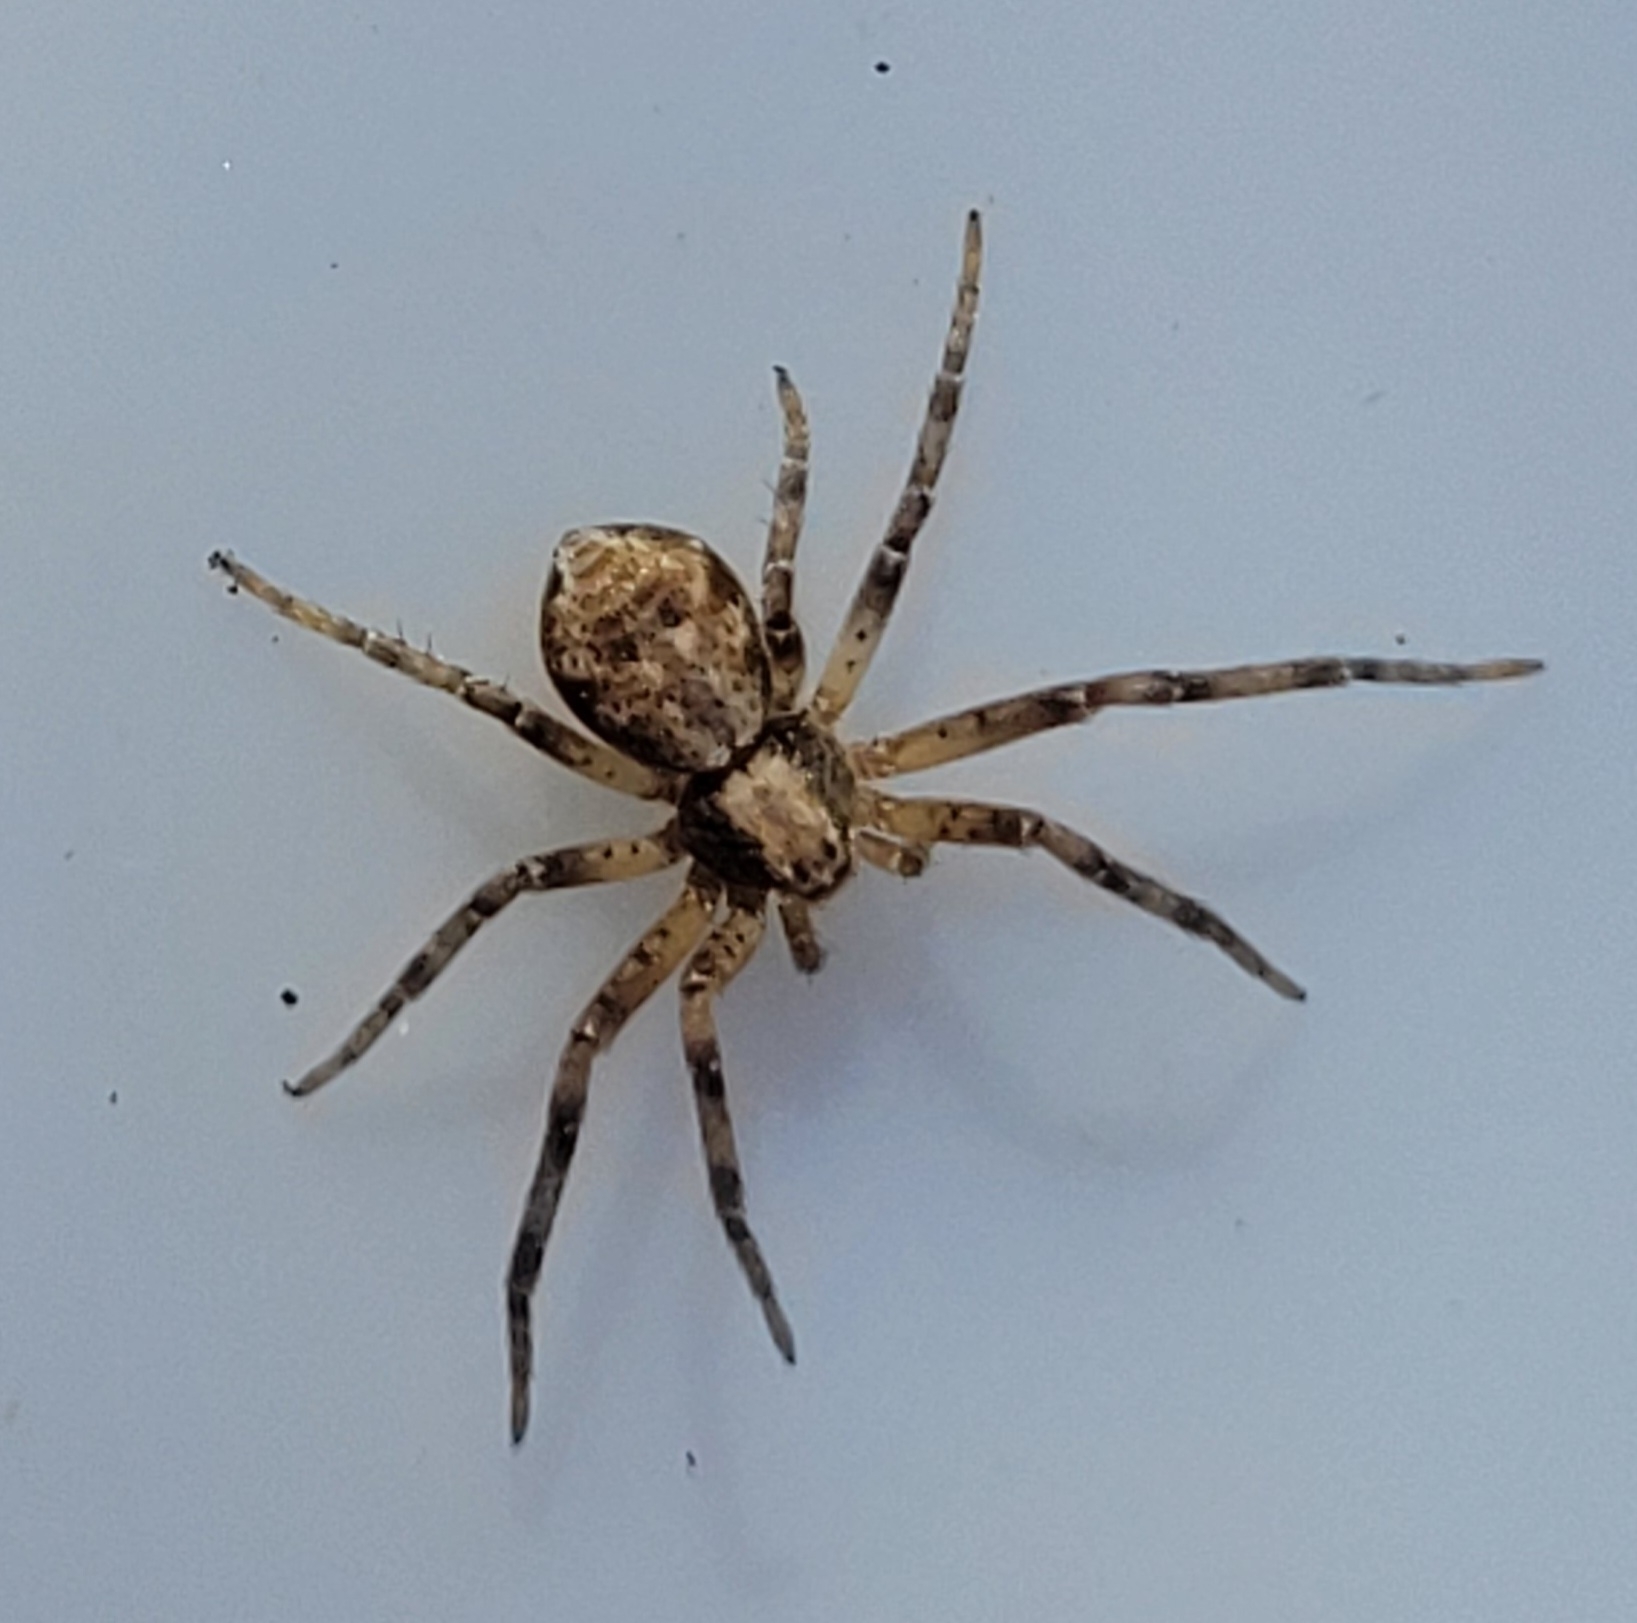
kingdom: Animalia
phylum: Arthropoda
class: Arachnida
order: Araneae
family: Philodromidae
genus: Philodromus
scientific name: Philodromus aureolus
